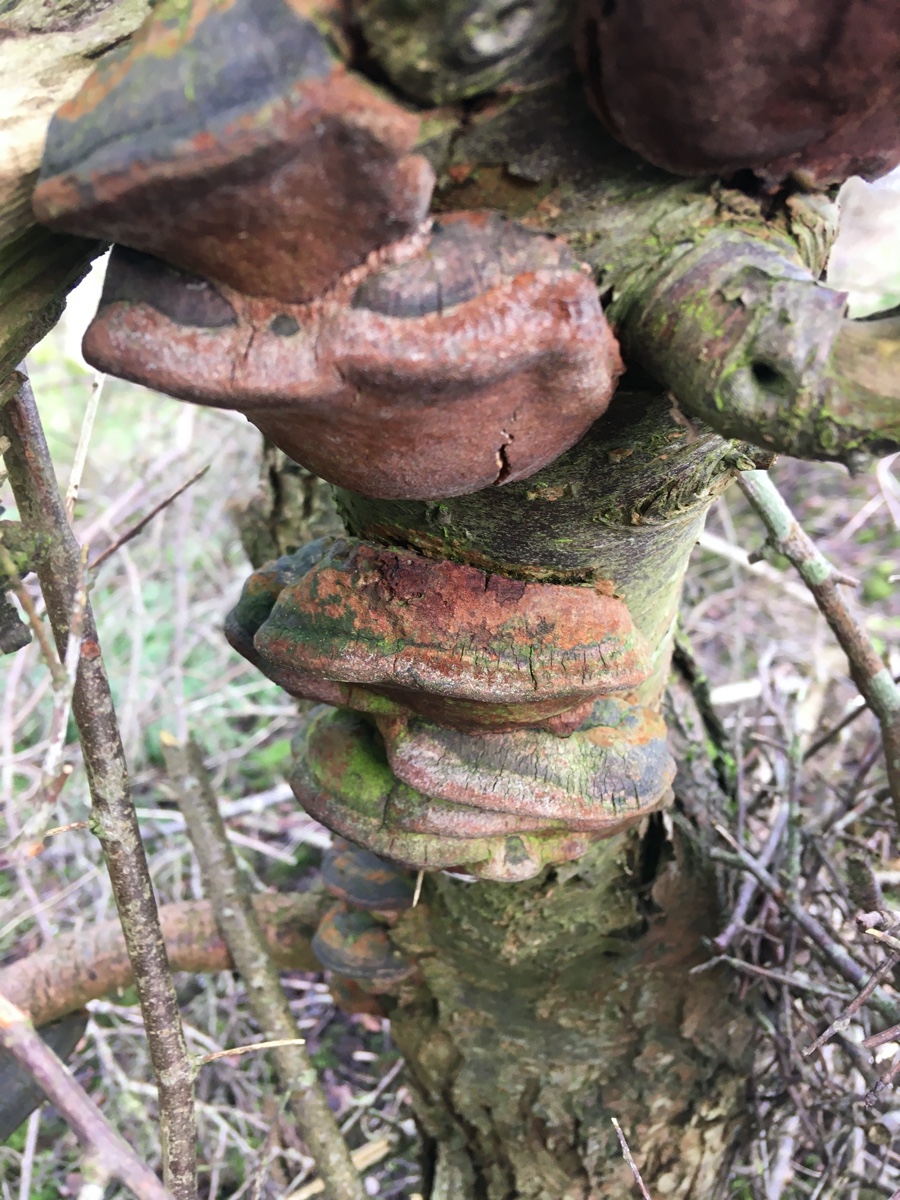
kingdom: Fungi
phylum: Basidiomycota
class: Agaricomycetes
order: Hymenochaetales
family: Hymenochaetaceae
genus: Phellinus
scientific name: Phellinus pomaceus
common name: blomme-ildporesvamp
